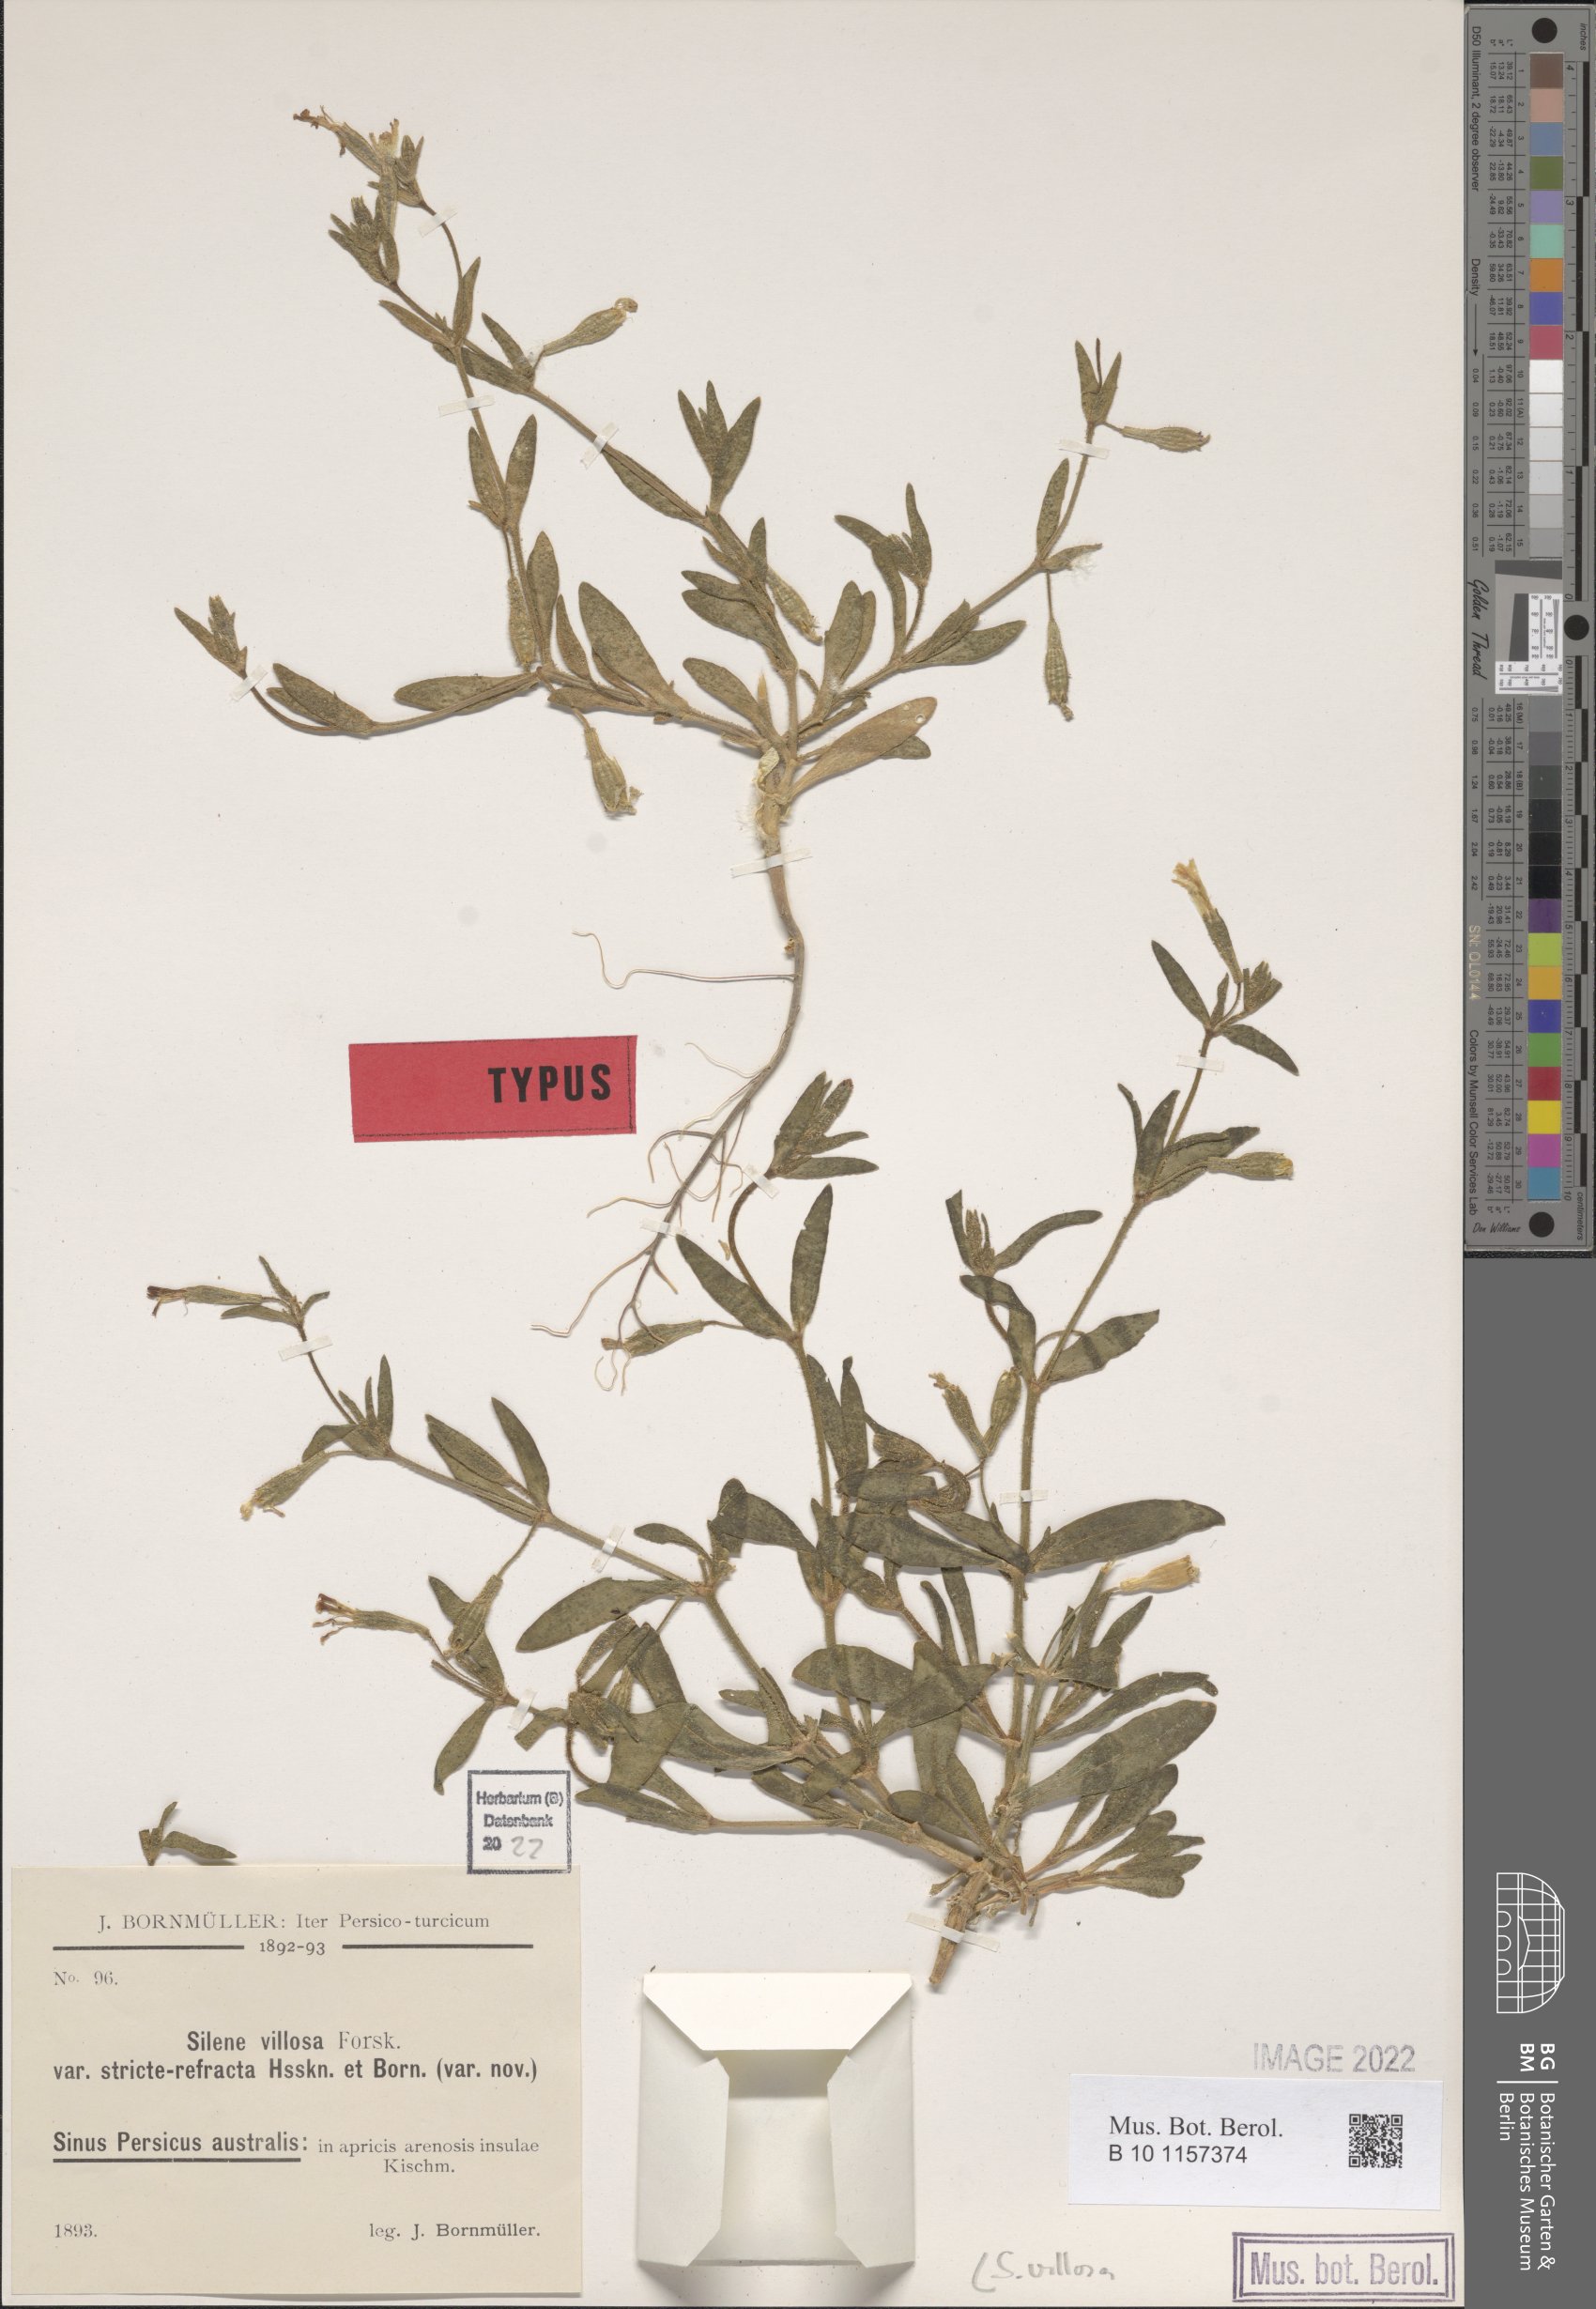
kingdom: Plantae
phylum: Tracheophyta
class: Magnoliopsida
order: Caryophyllales
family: Caryophyllaceae
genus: Silene
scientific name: Silene villosa
